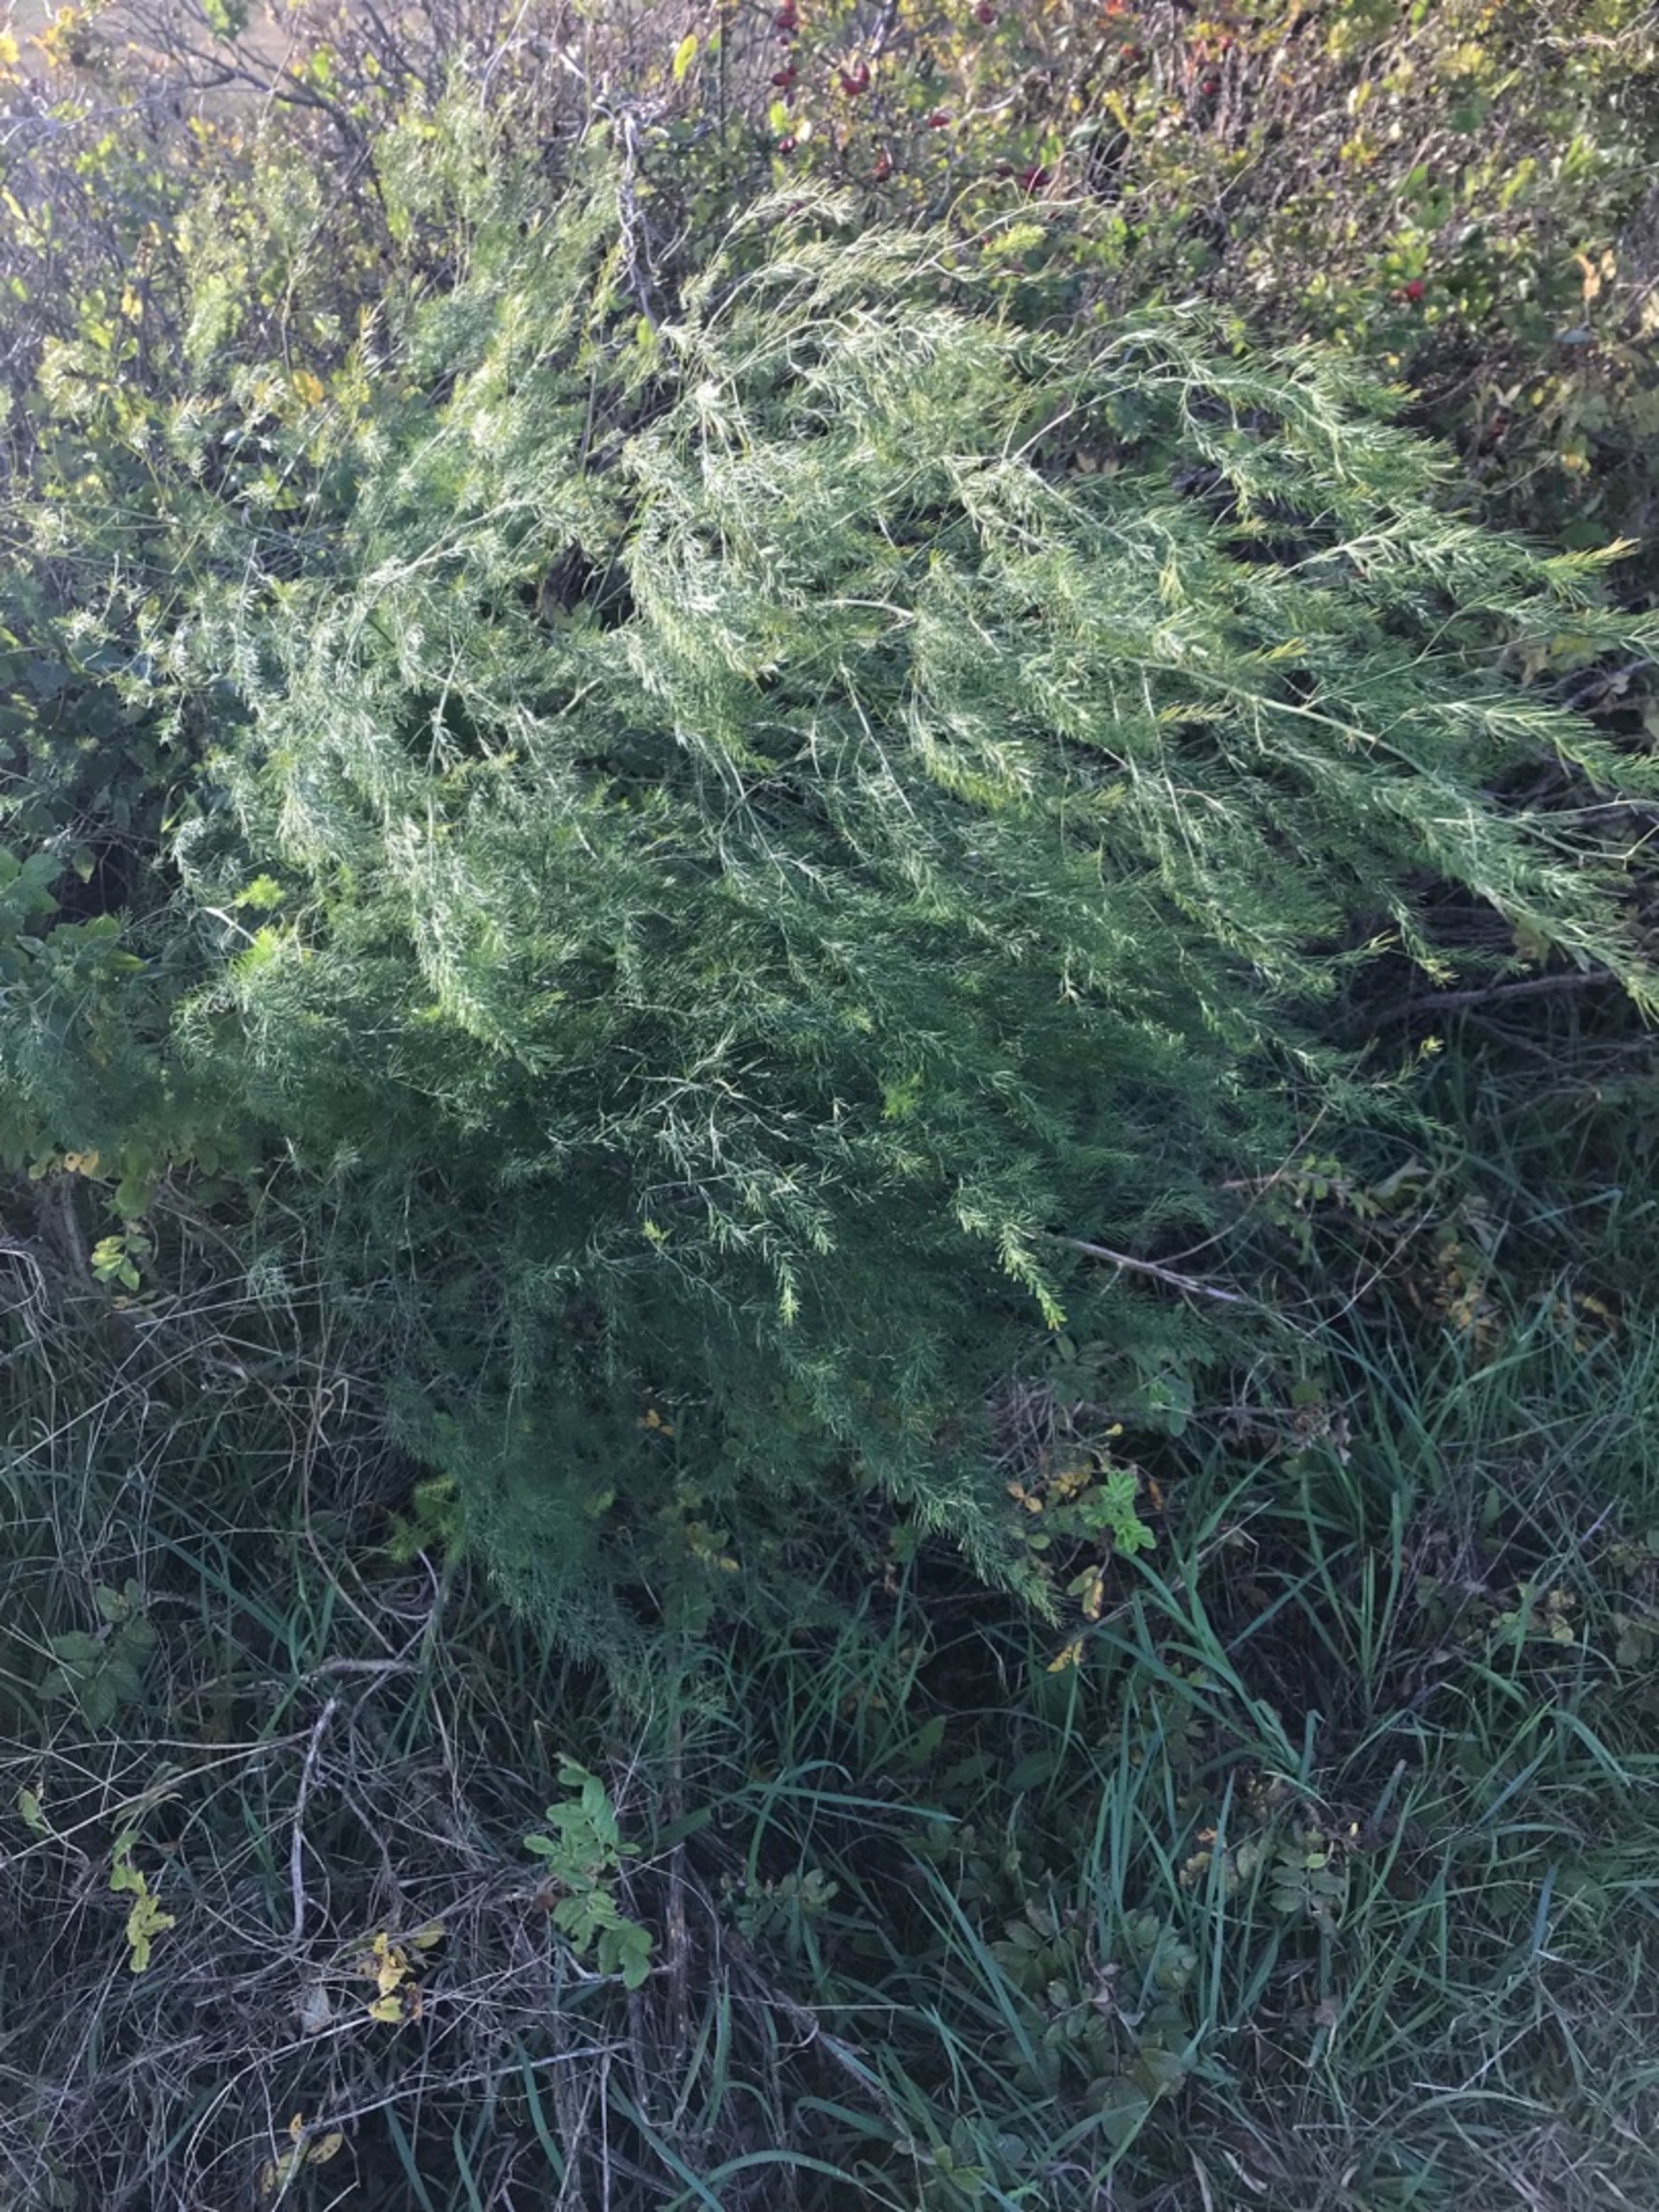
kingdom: Plantae
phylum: Tracheophyta
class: Liliopsida
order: Asparagales
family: Asparagaceae
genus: Asparagus
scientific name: Asparagus officinalis
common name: Asparges
